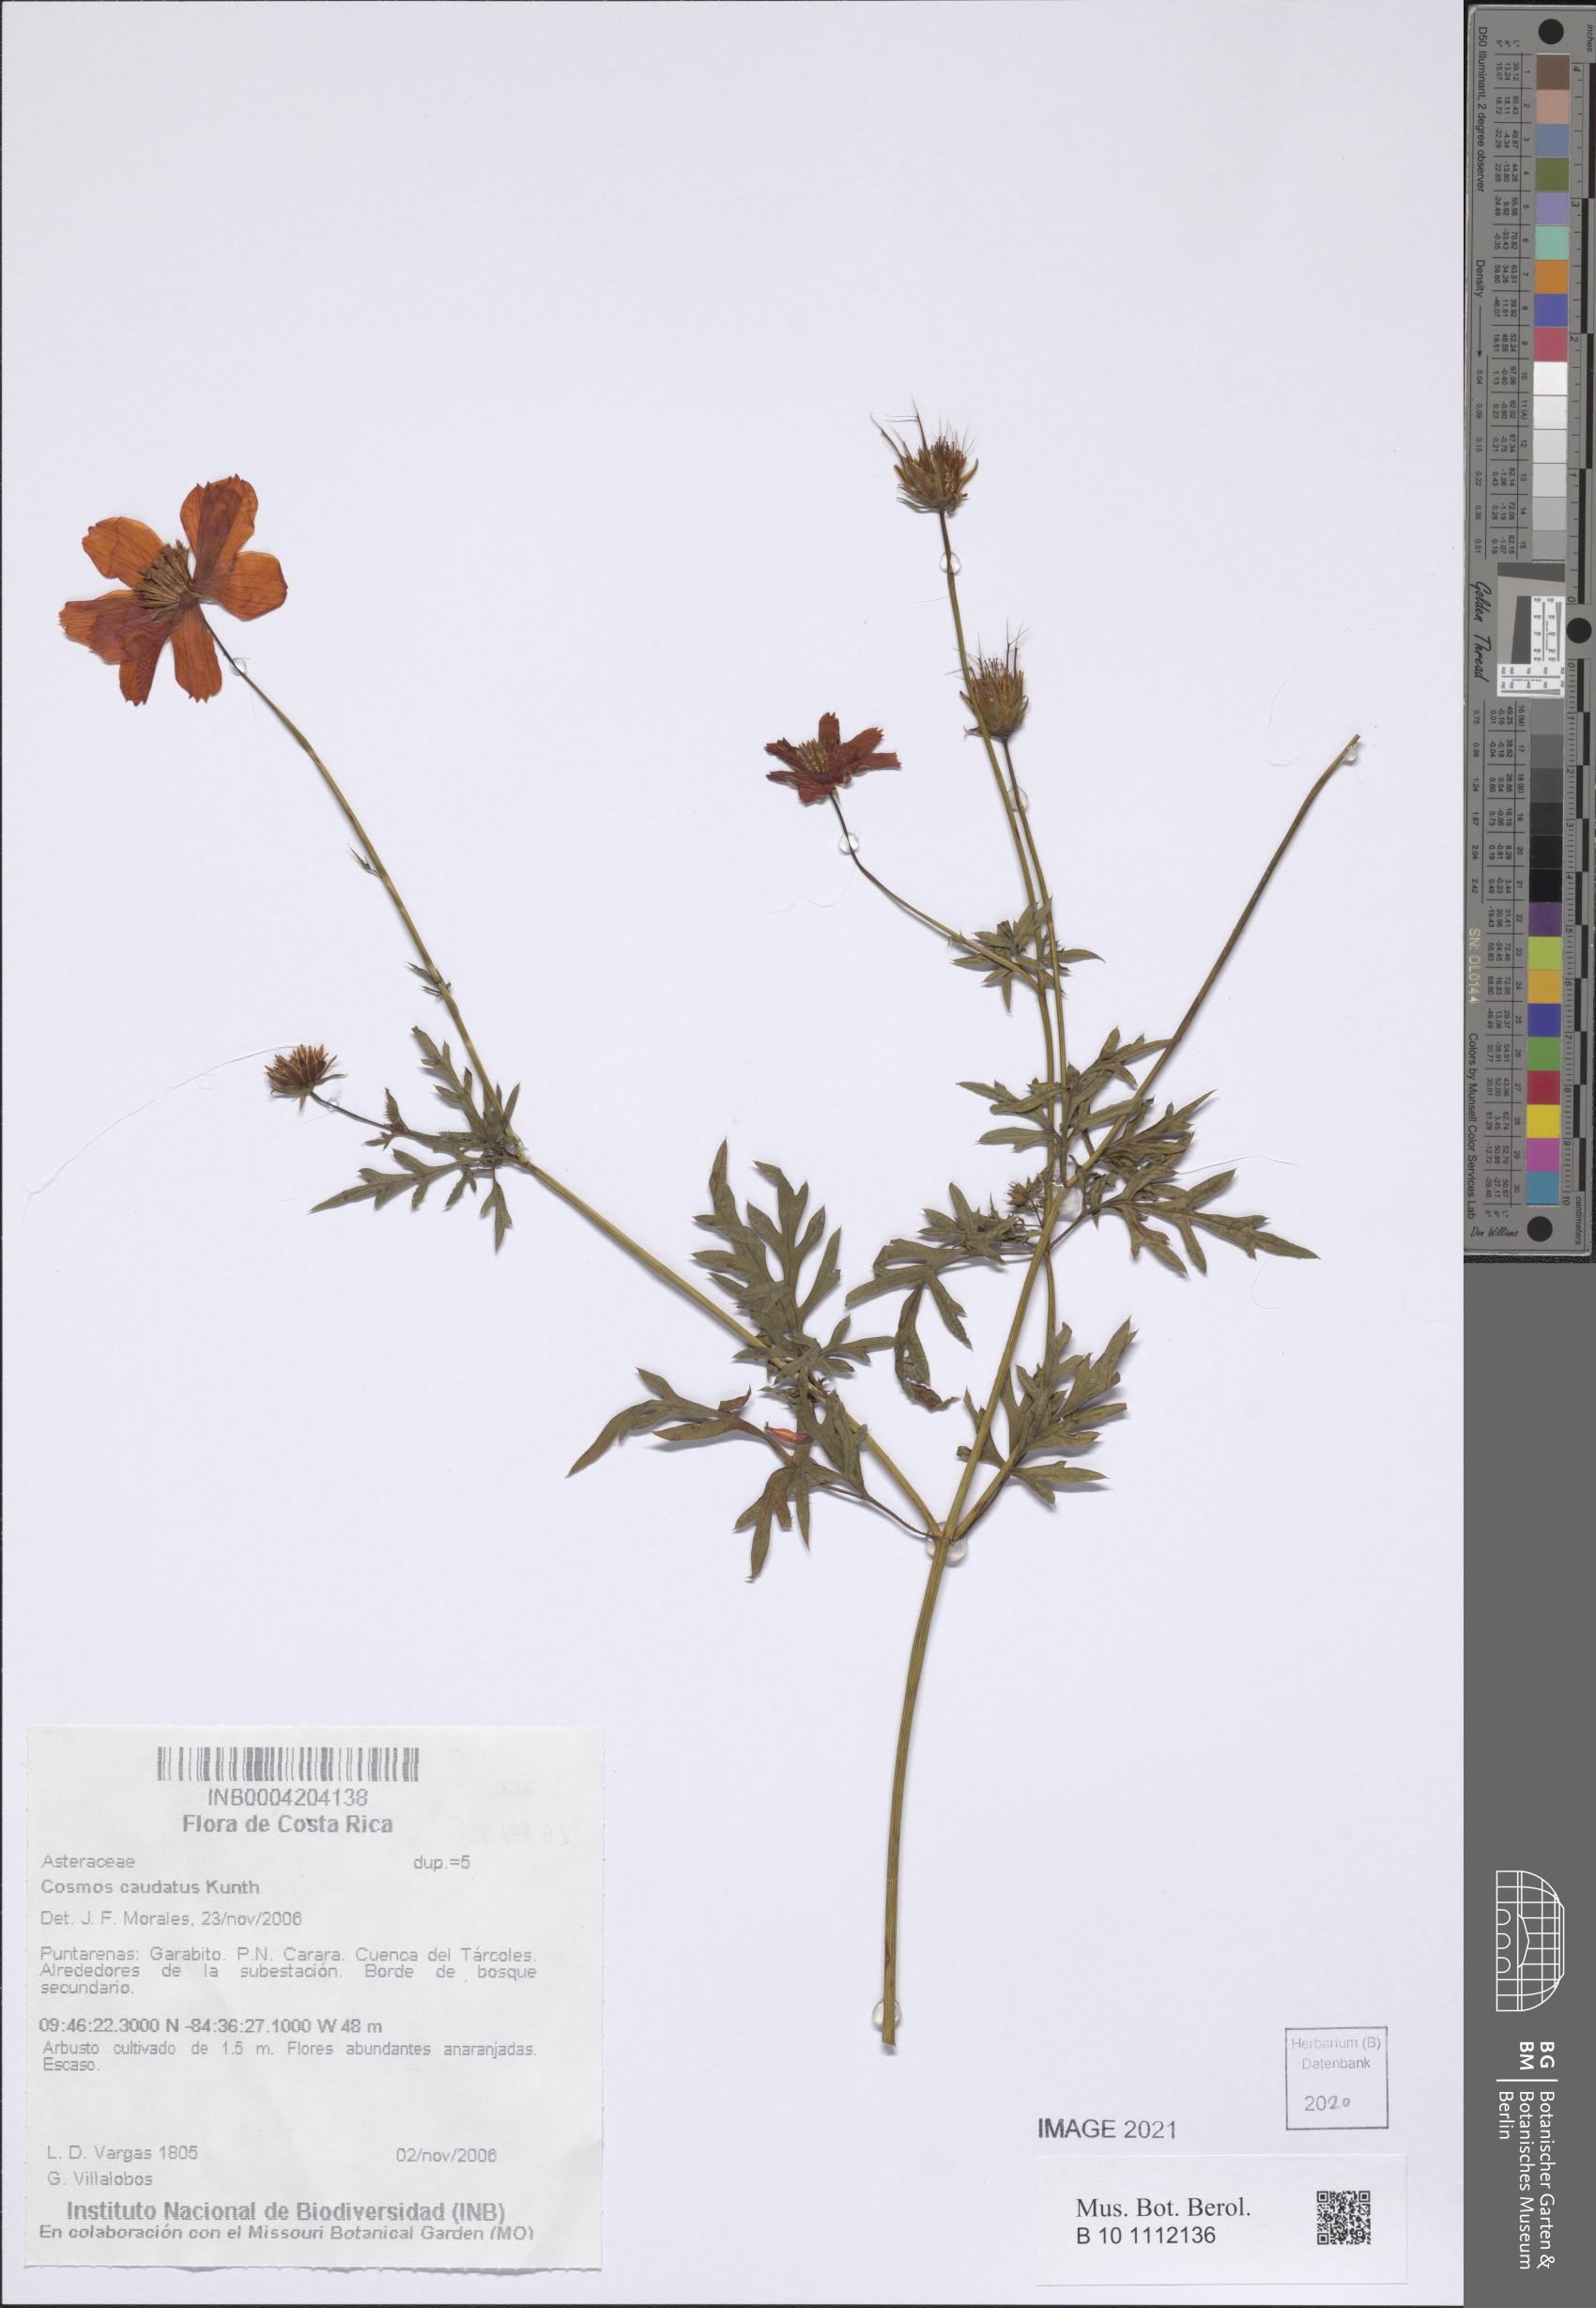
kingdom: Plantae
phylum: Tracheophyta
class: Magnoliopsida
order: Asterales
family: Asteraceae
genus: Cosmos
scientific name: Cosmos caudatus
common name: Wild cosmos
